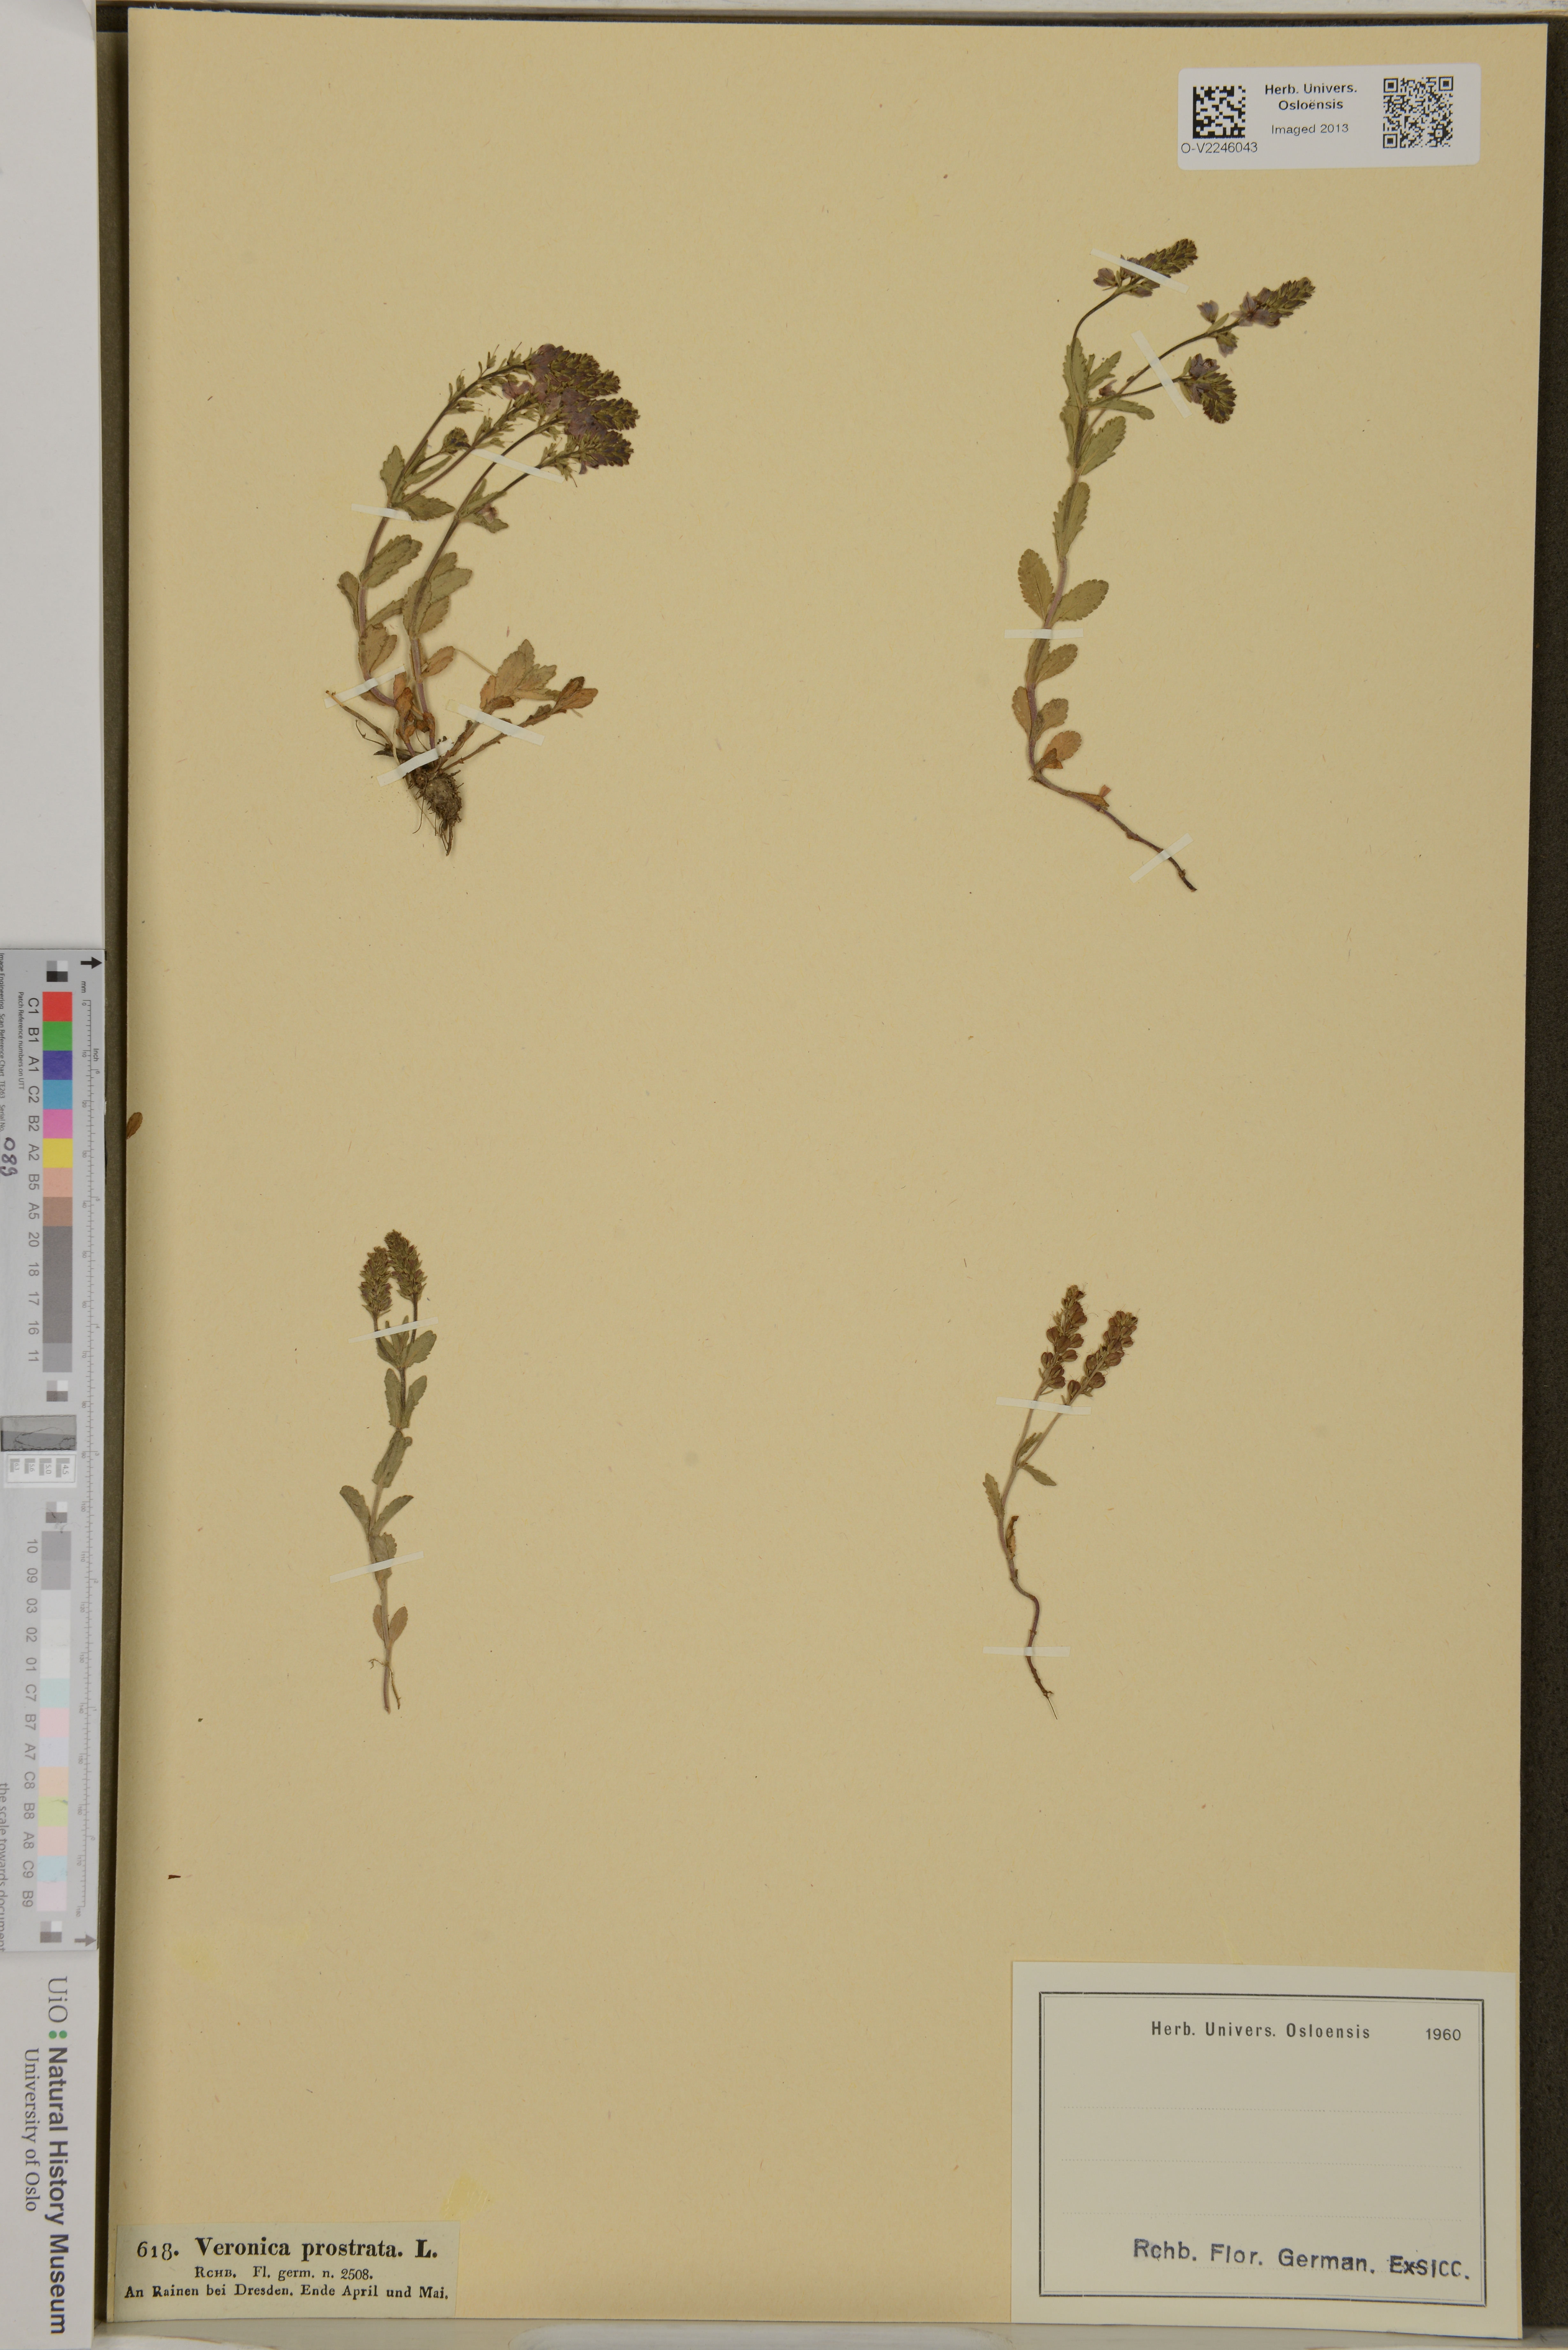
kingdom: Plantae
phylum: Tracheophyta
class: Magnoliopsida
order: Lamiales
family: Plantaginaceae
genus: Veronica
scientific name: Veronica prostrata
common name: Prostrate speedwell
